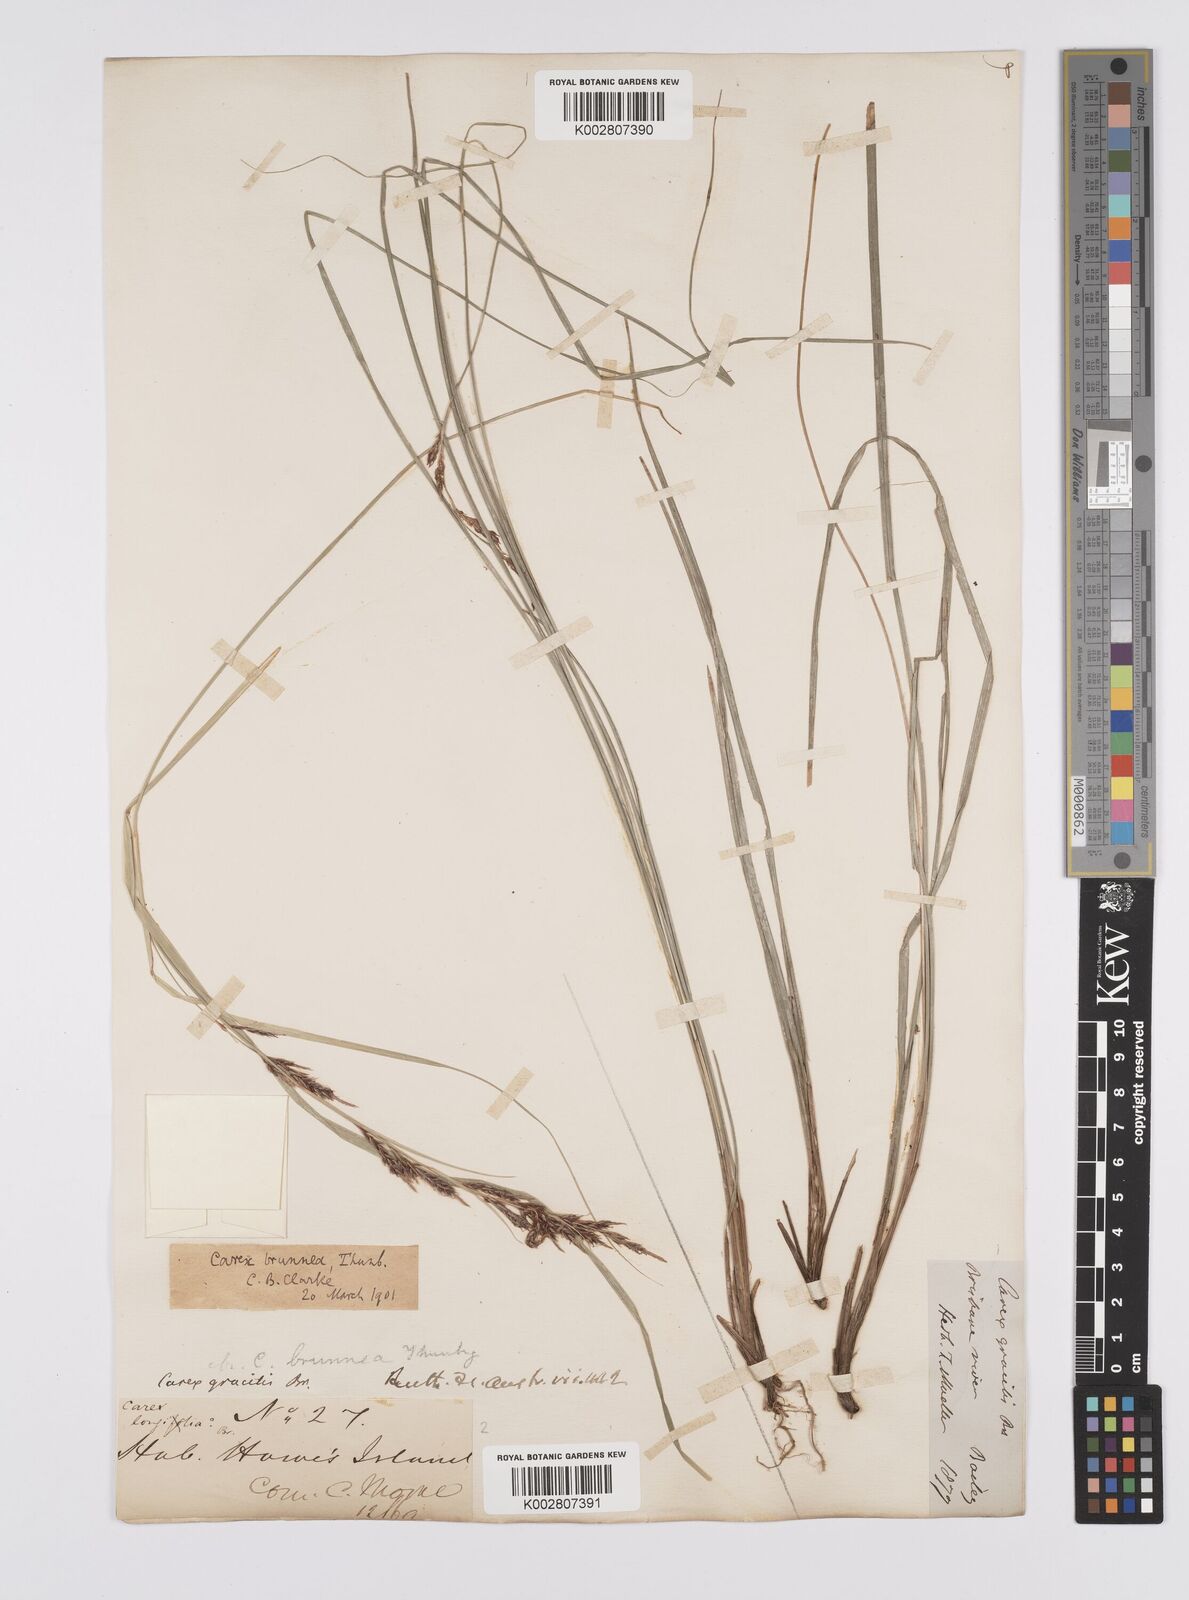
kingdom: Plantae
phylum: Tracheophyta
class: Liliopsida
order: Poales
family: Cyperaceae
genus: Carex
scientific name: Carex hattoriana
